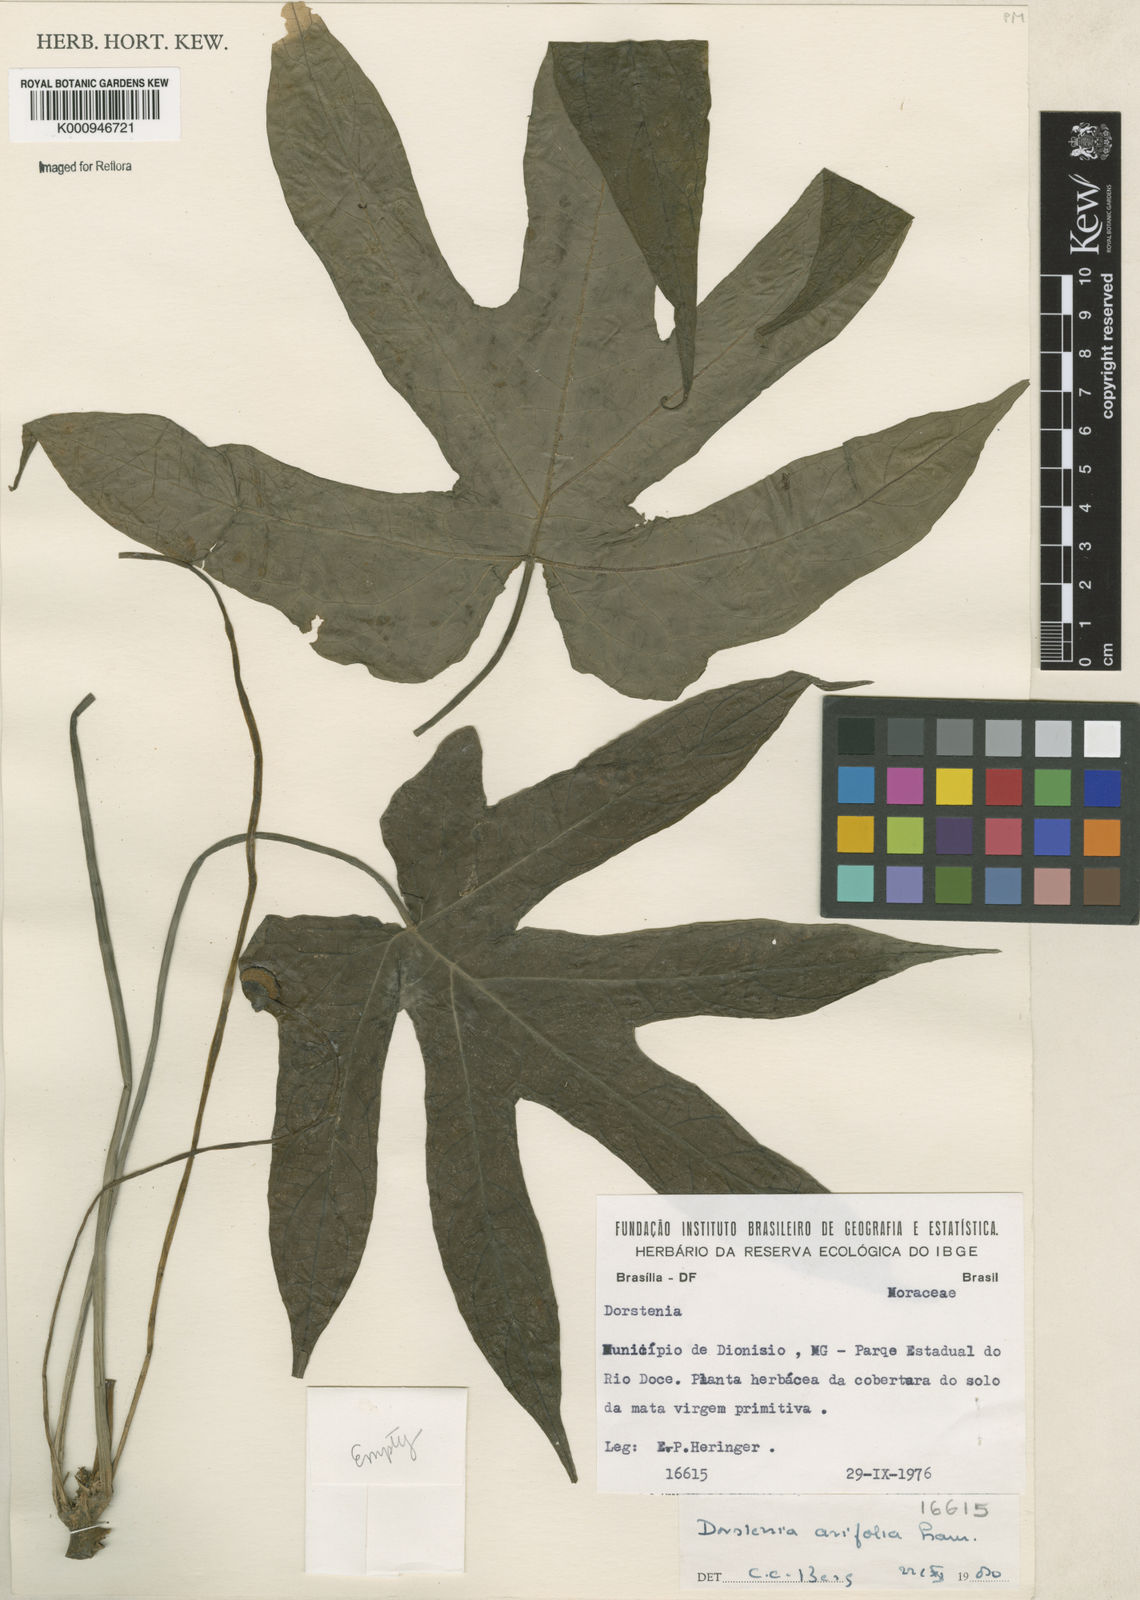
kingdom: Plantae
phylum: Tracheophyta
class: Magnoliopsida
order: Rosales
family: Moraceae
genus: Dorstenia
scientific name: Dorstenia arifolia
